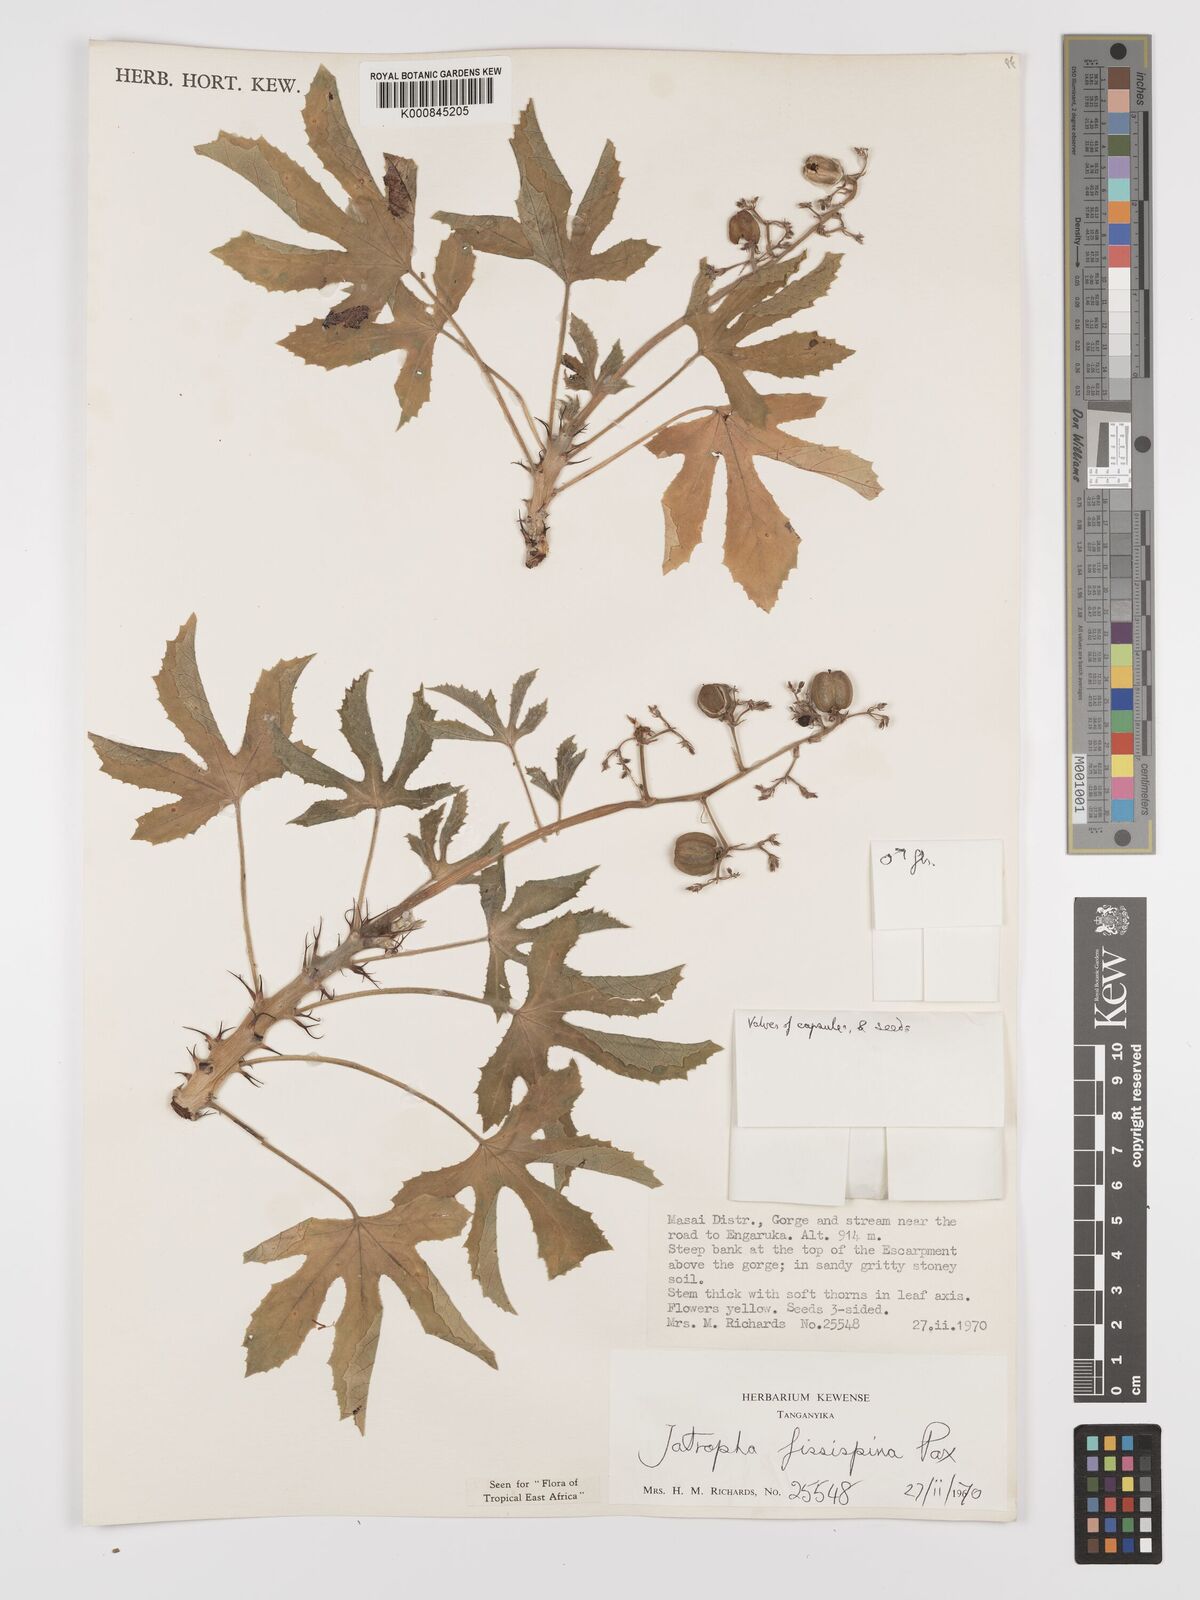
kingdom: Plantae
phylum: Tracheophyta
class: Magnoliopsida
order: Malpighiales
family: Euphorbiaceae
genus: Jatropha
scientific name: Jatropha ellenbeckii
